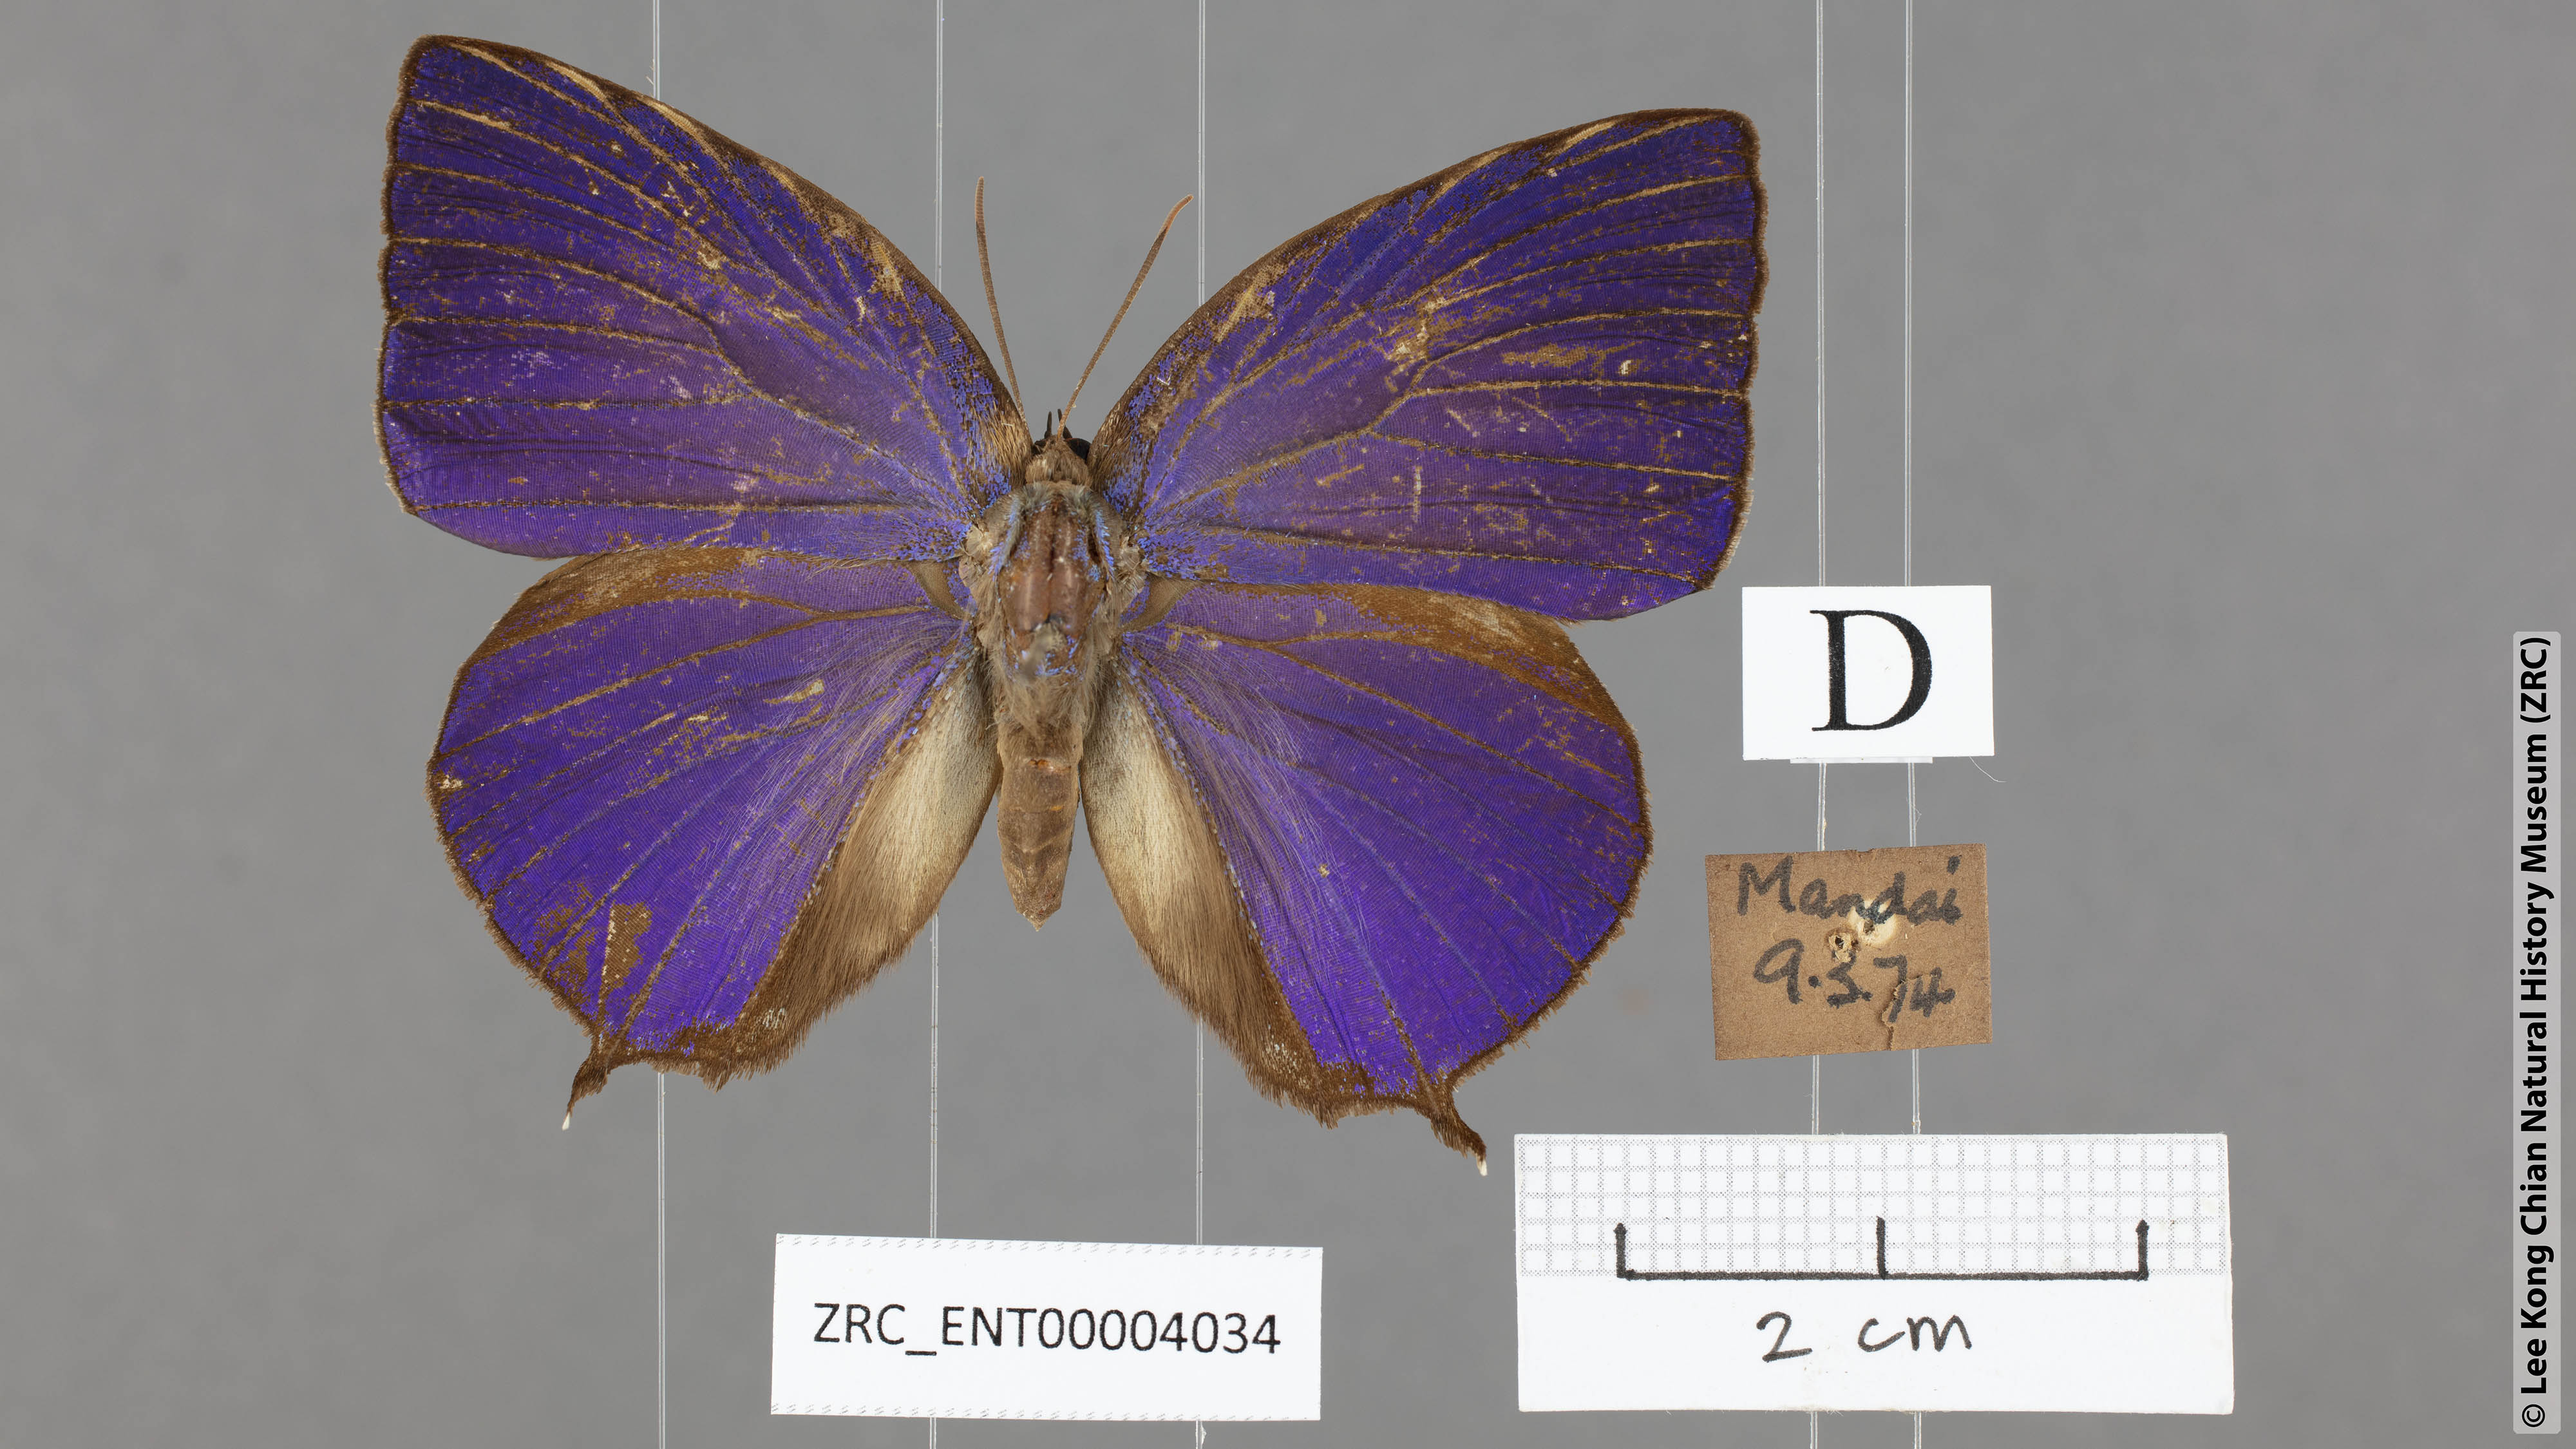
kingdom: Animalia
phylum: Arthropoda
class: Insecta
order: Lepidoptera
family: Lycaenidae
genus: Arhopala
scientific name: Arhopala centaurus
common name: Dull oak-blue
